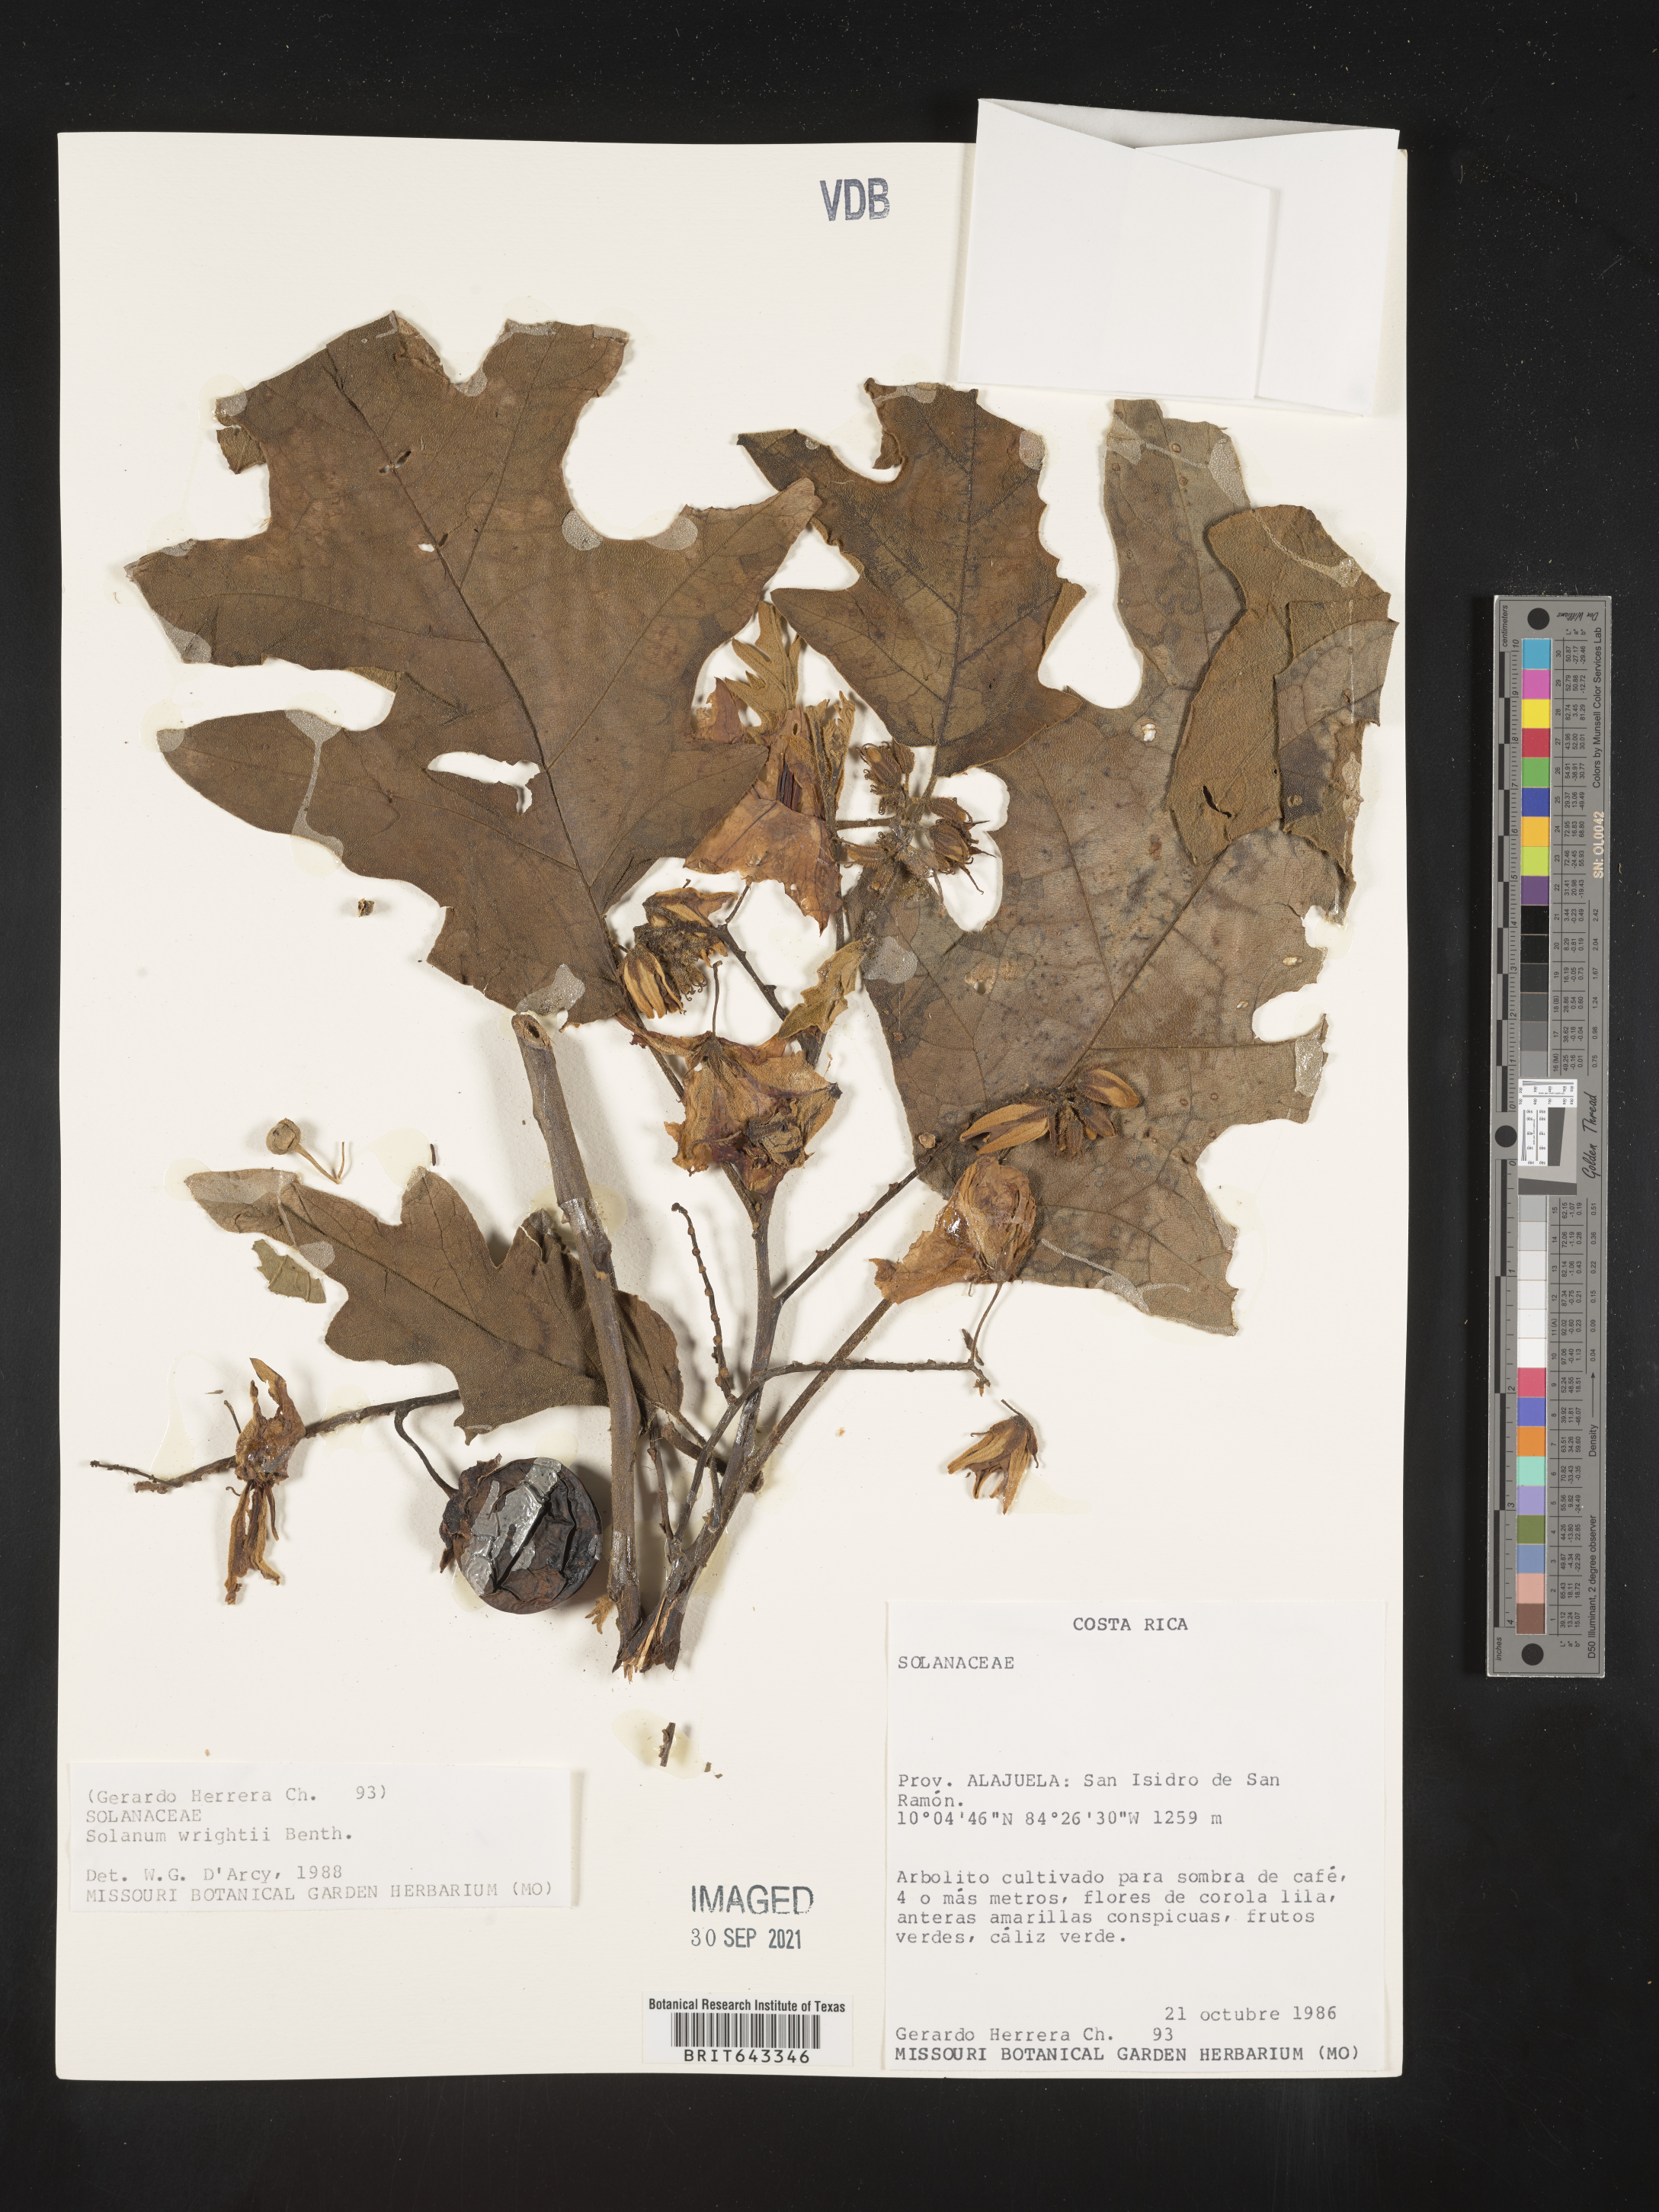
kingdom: Plantae
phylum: Tracheophyta
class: Magnoliopsida
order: Solanales
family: Solanaceae
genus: Solanum
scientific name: Solanum
